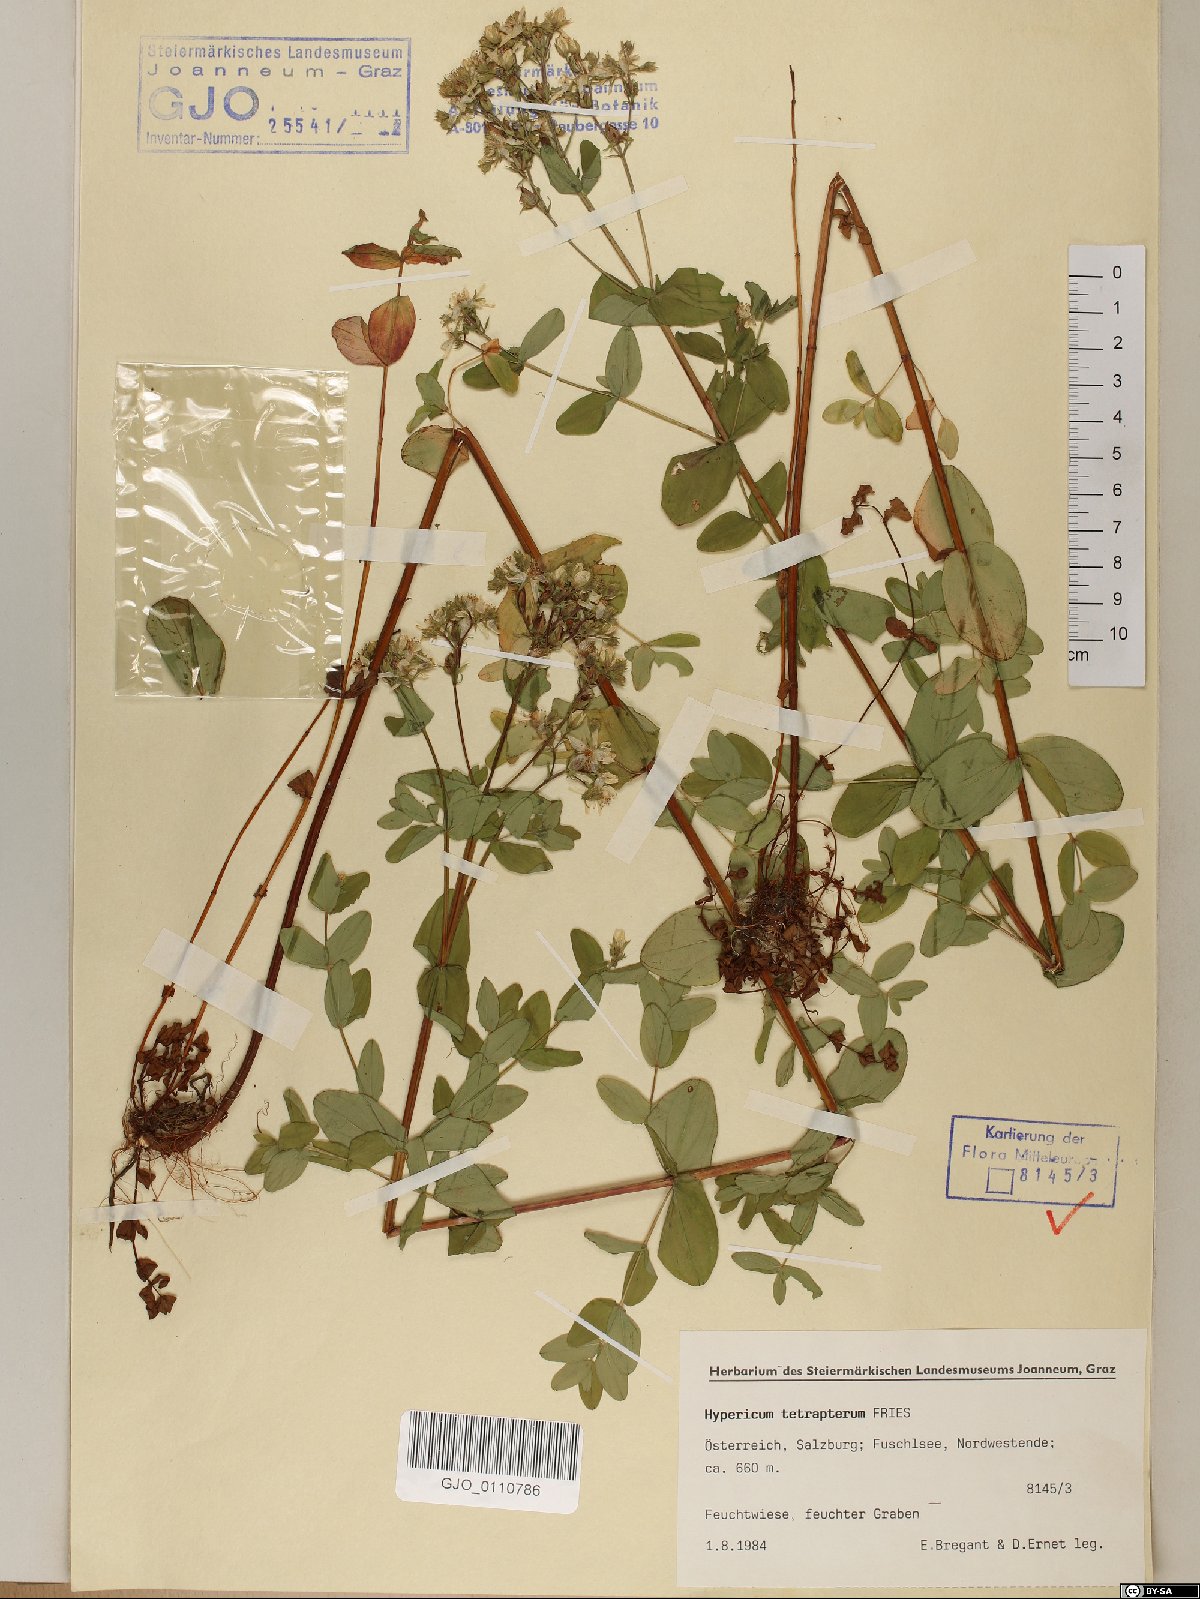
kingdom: Plantae
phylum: Tracheophyta
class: Magnoliopsida
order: Malpighiales
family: Hypericaceae
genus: Hypericum
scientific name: Hypericum tetrapterum
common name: Square-stalked st. john's-wort
